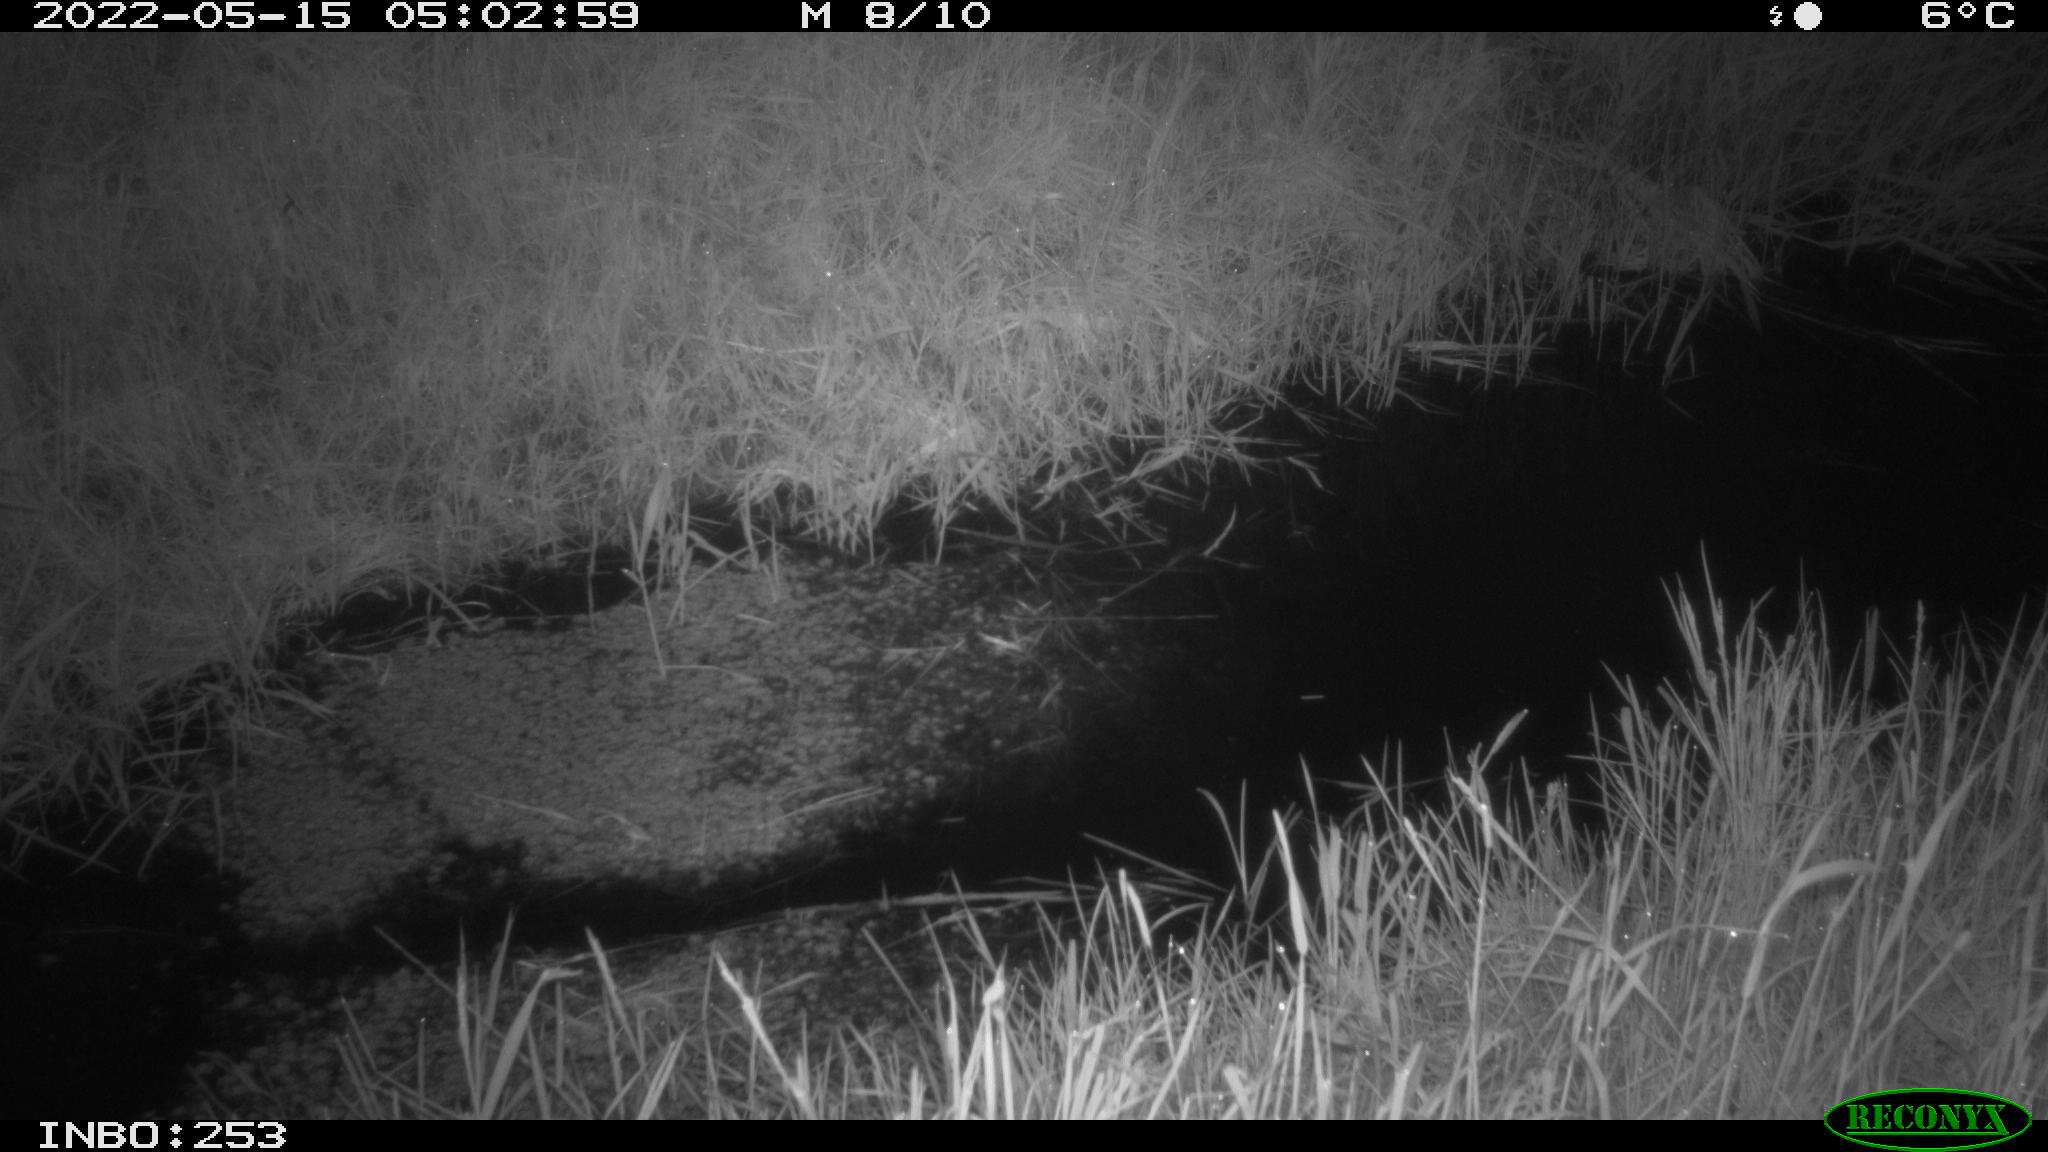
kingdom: Animalia
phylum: Chordata
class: Aves
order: Anseriformes
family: Anatidae
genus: Anas
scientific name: Anas platyrhynchos
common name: Mallard
